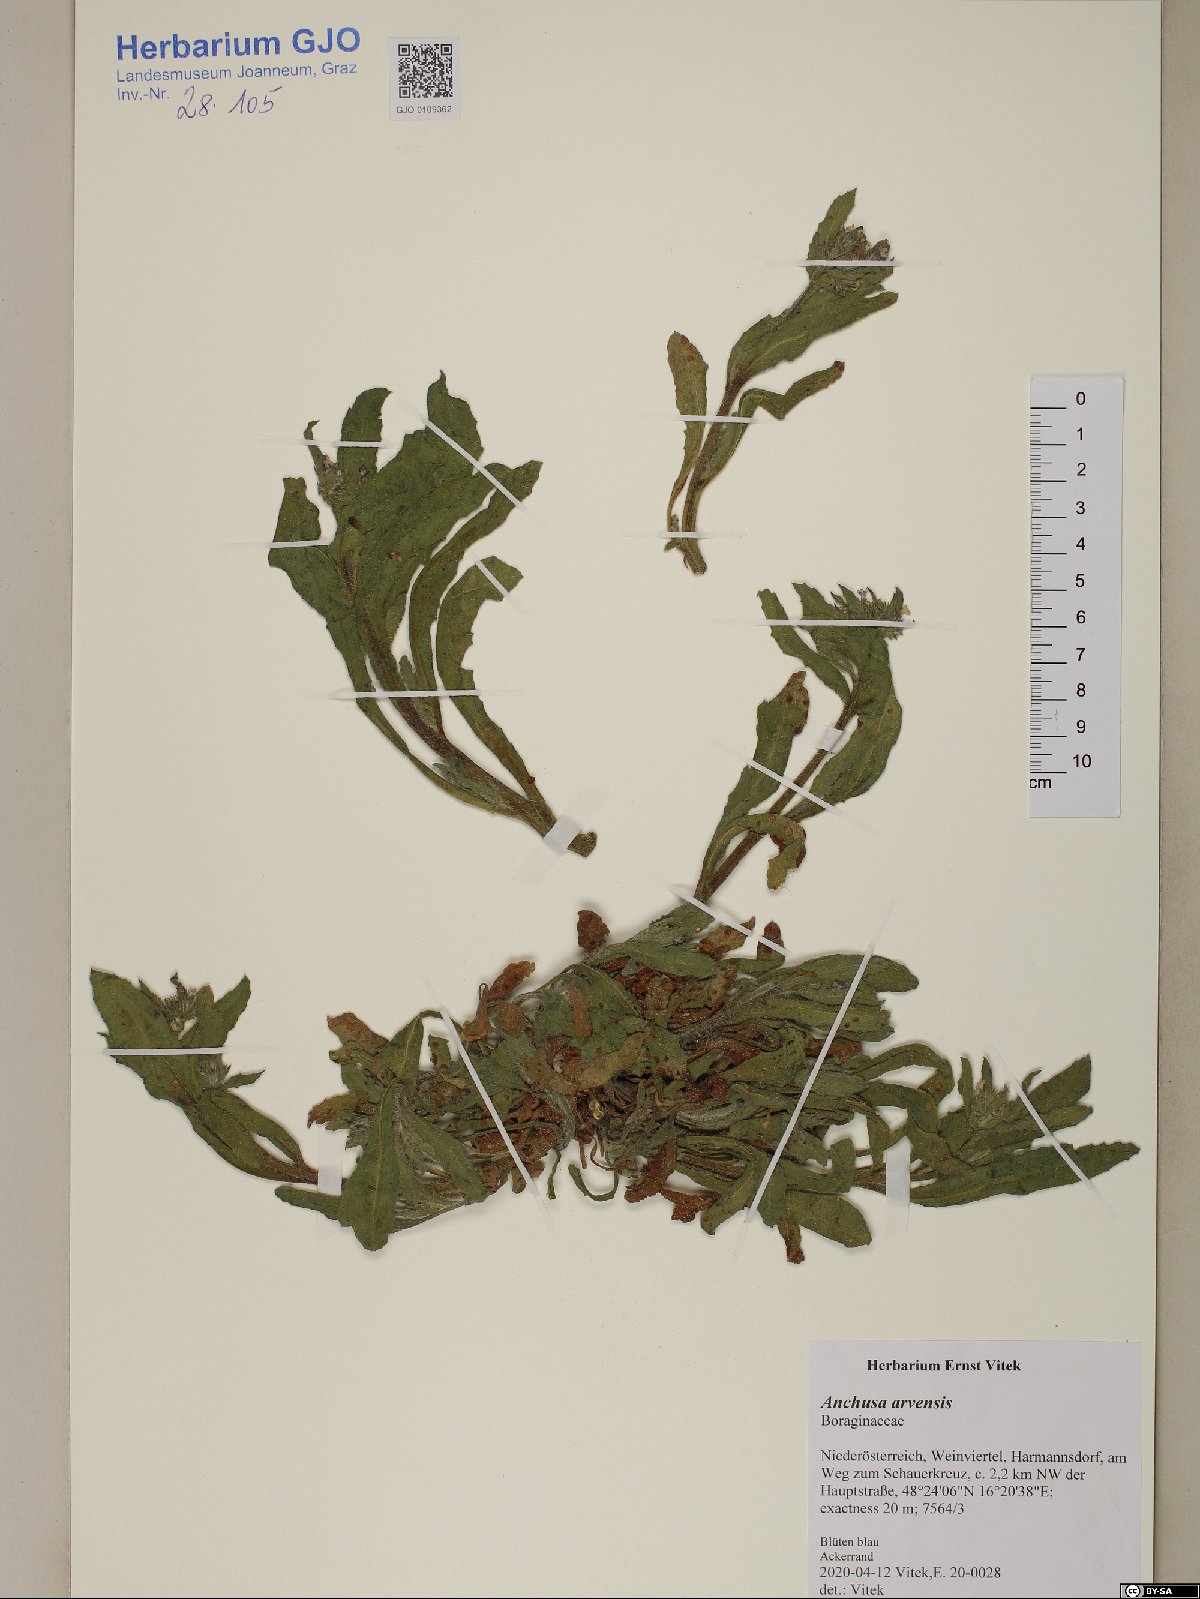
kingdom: Plantae
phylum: Tracheophyta
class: Magnoliopsida
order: Boraginales
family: Boraginaceae
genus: Lycopsis
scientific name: Lycopsis arvensis
